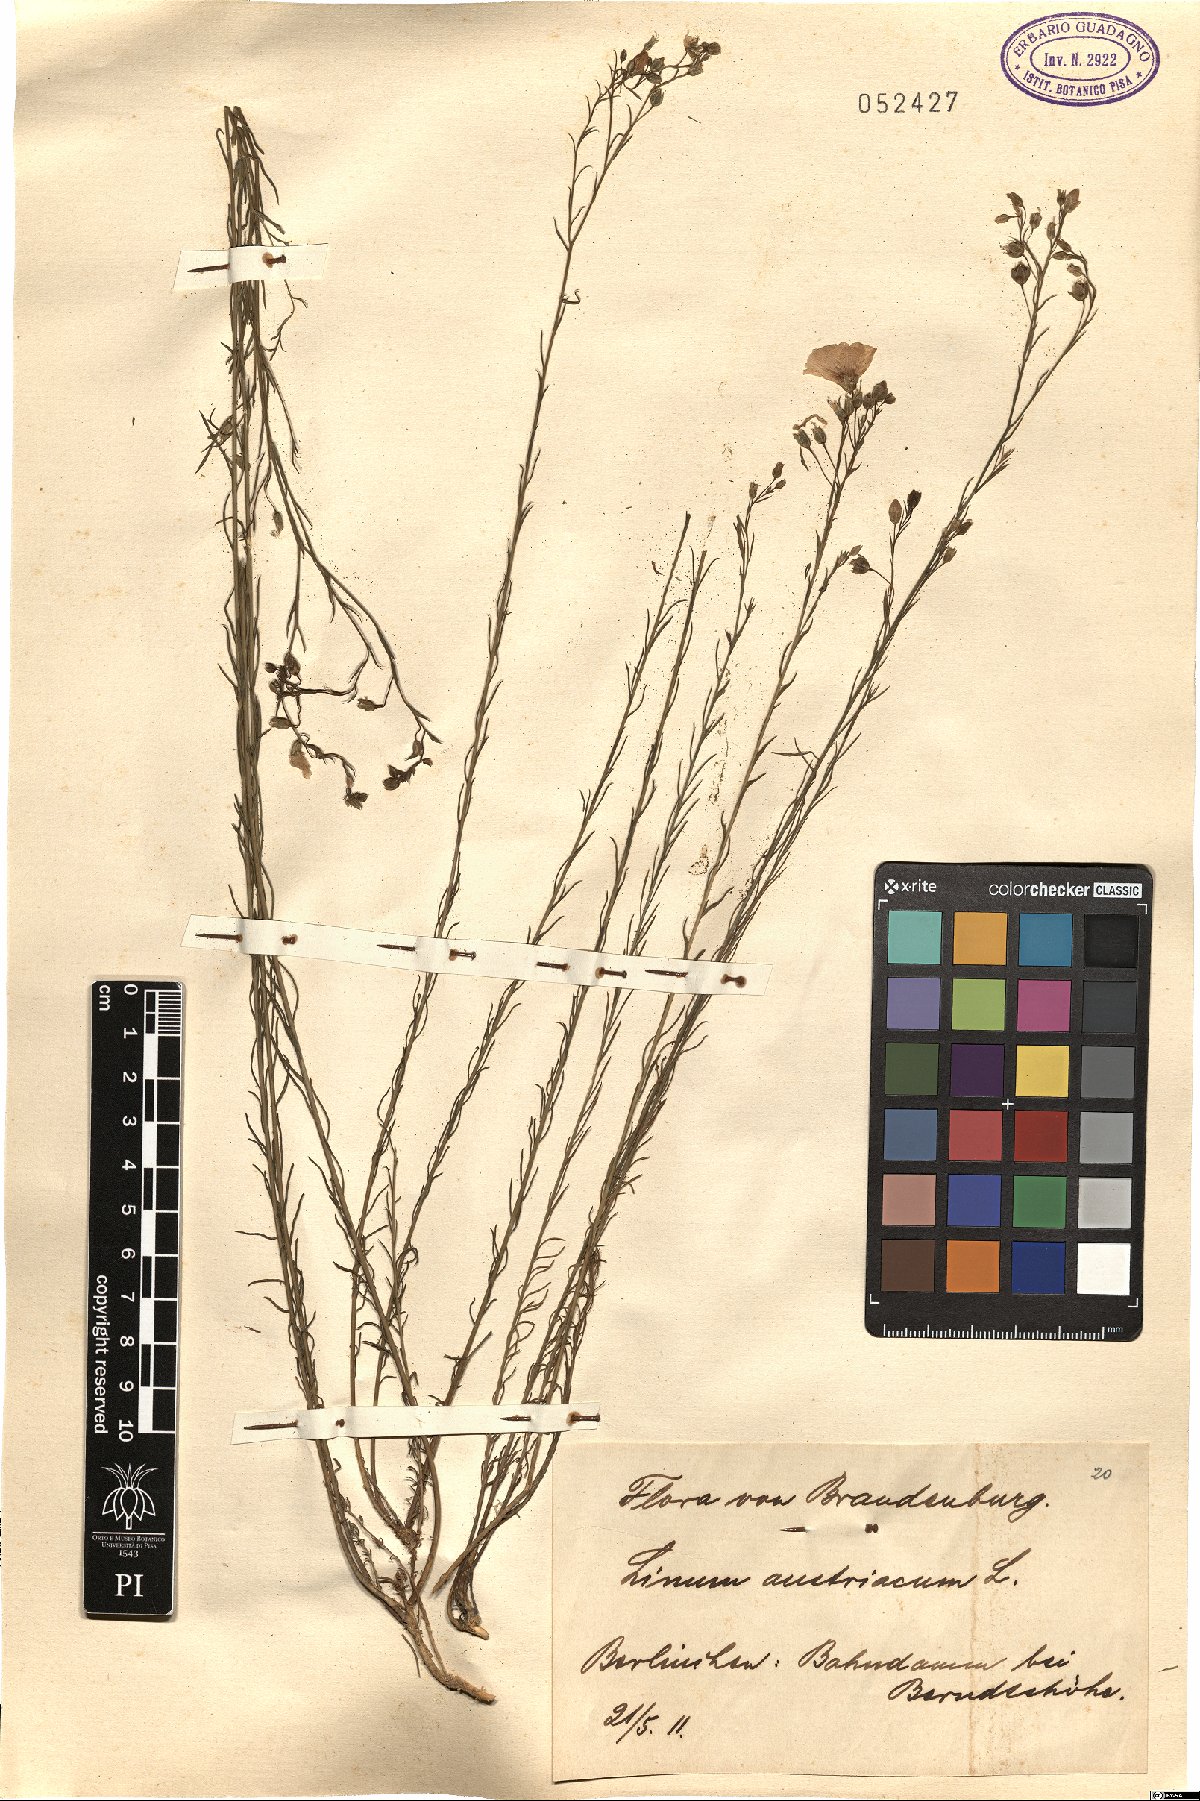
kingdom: Plantae
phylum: Tracheophyta
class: Magnoliopsida
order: Malpighiales
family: Linaceae
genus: Linum
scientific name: Linum austriacum
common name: Austrian flax
